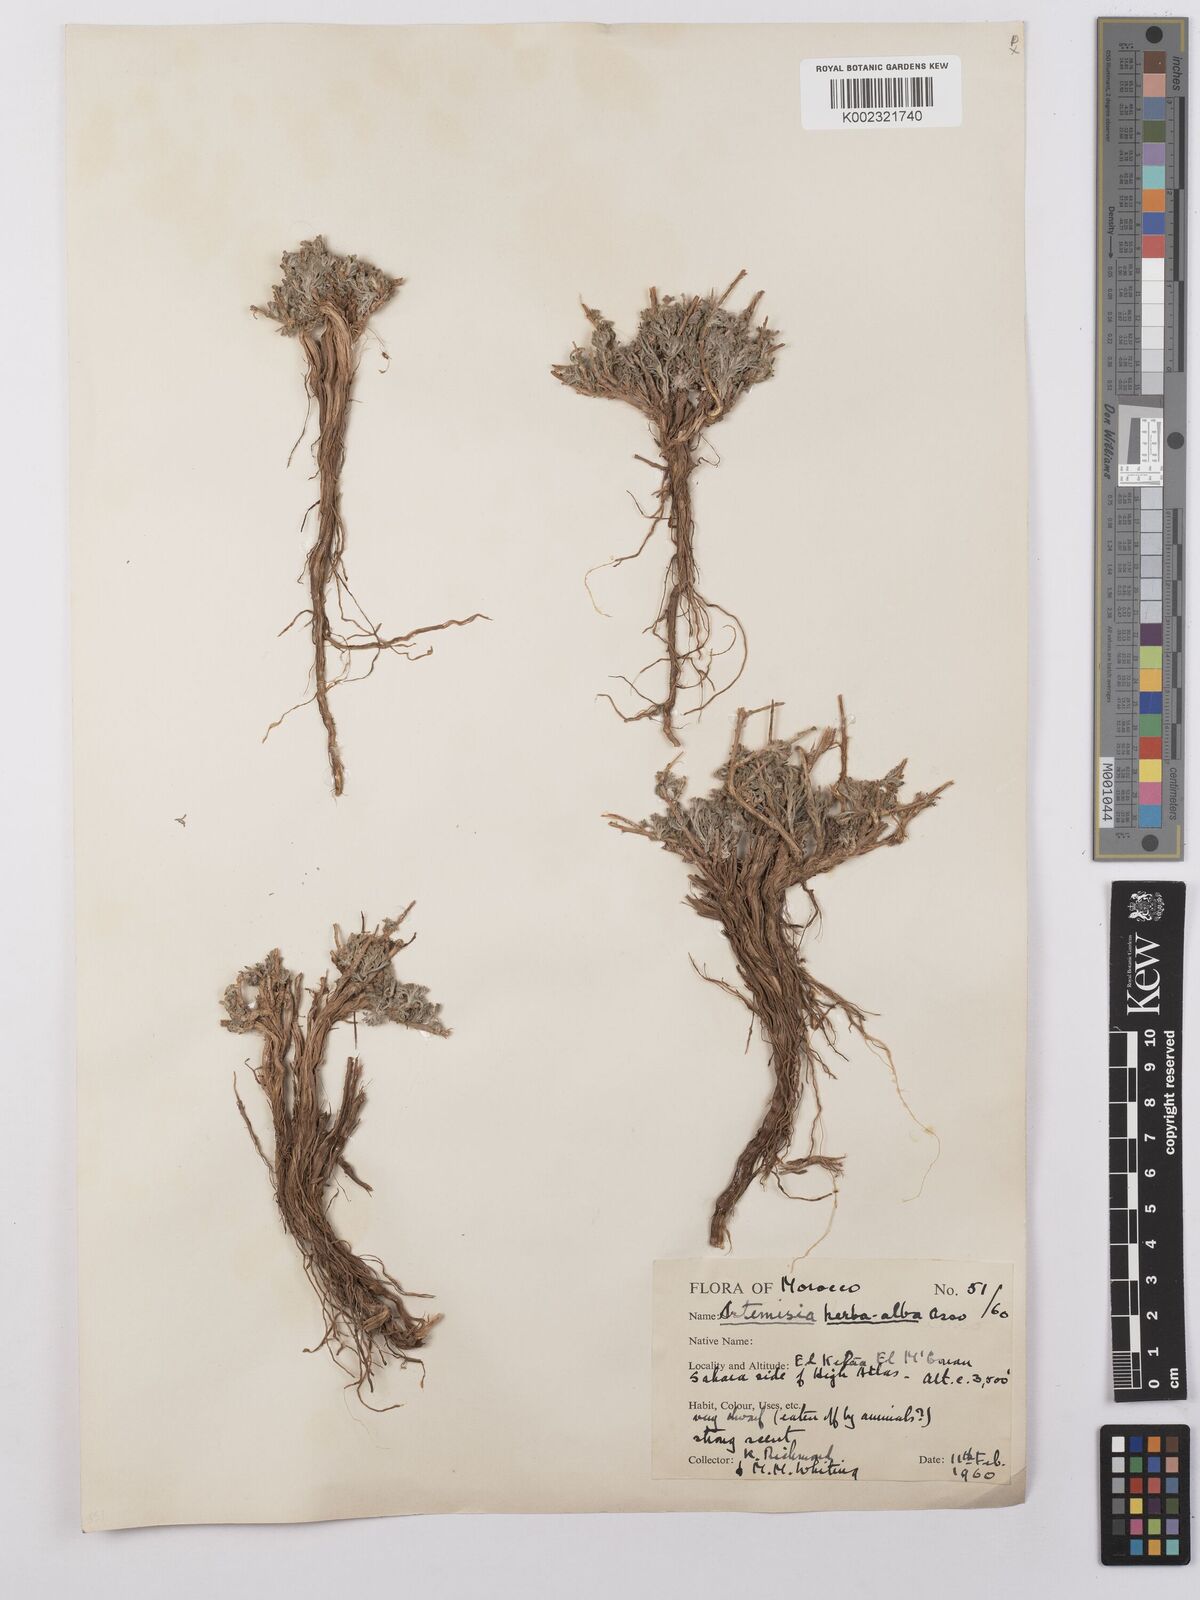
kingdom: Plantae
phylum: Tracheophyta
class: Magnoliopsida
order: Asterales
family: Asteraceae
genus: Artemisia
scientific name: Artemisia herba-alba
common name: White wormwood
